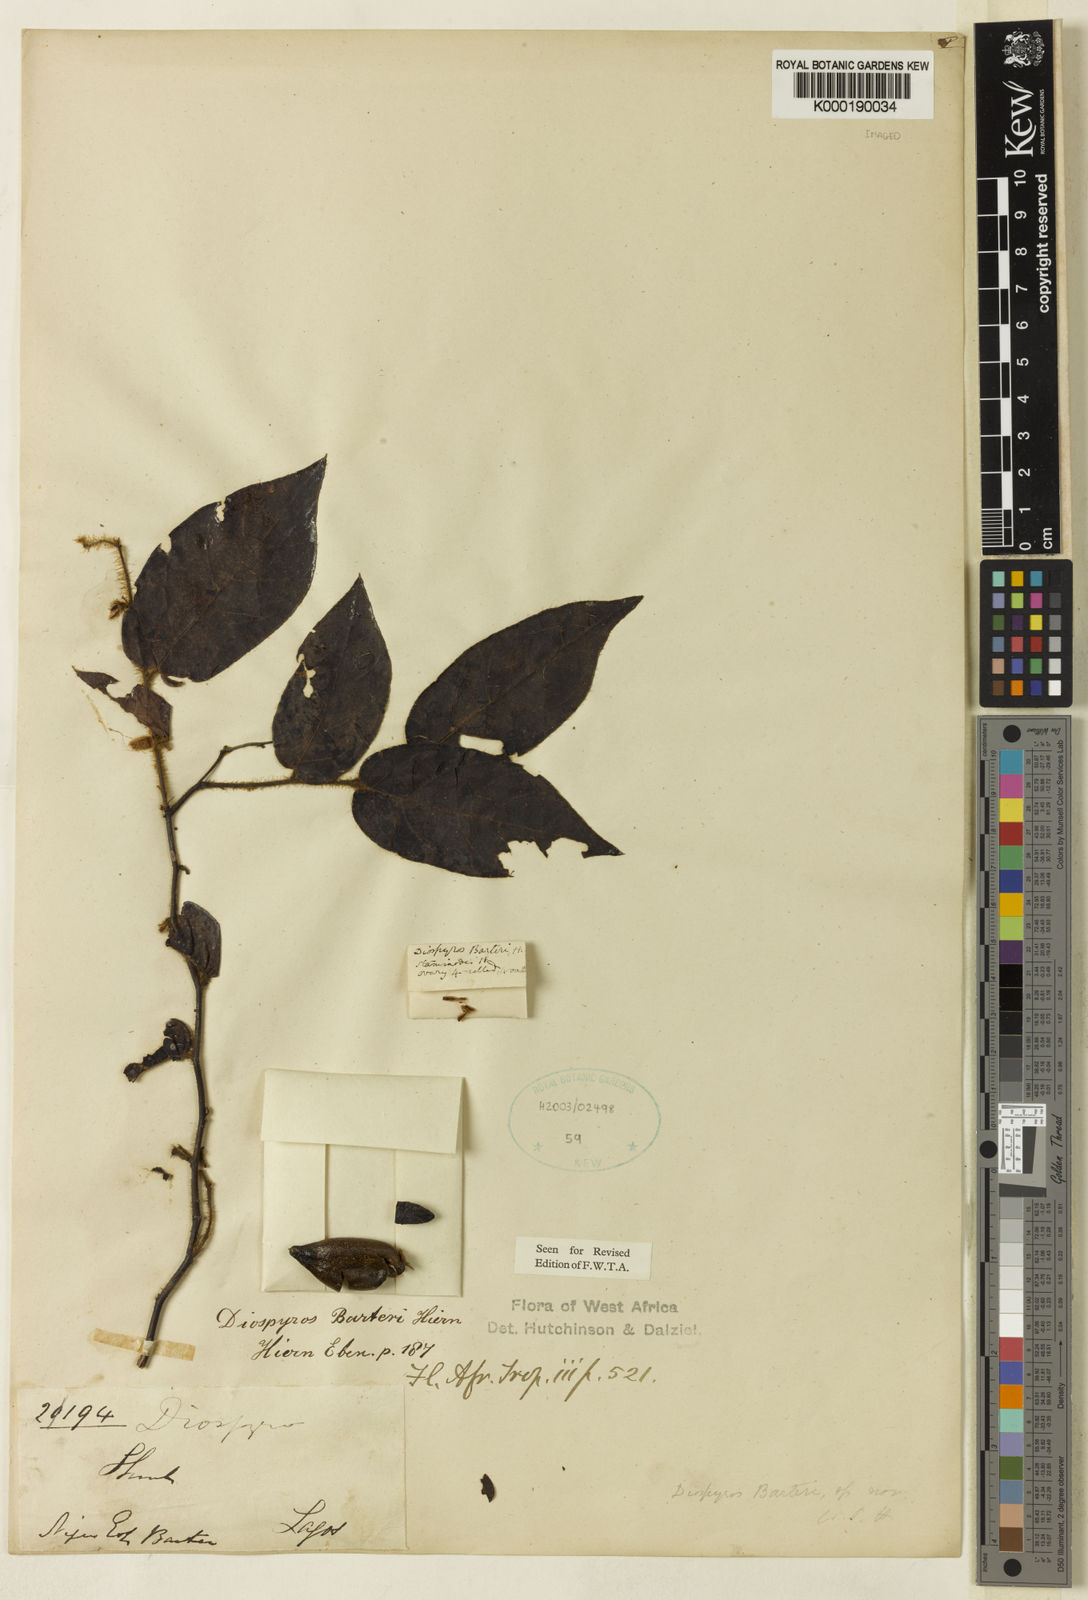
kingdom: Plantae
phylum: Tracheophyta
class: Magnoliopsida
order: Ericales
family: Ebenaceae
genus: Diospyros
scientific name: Diospyros barteri
